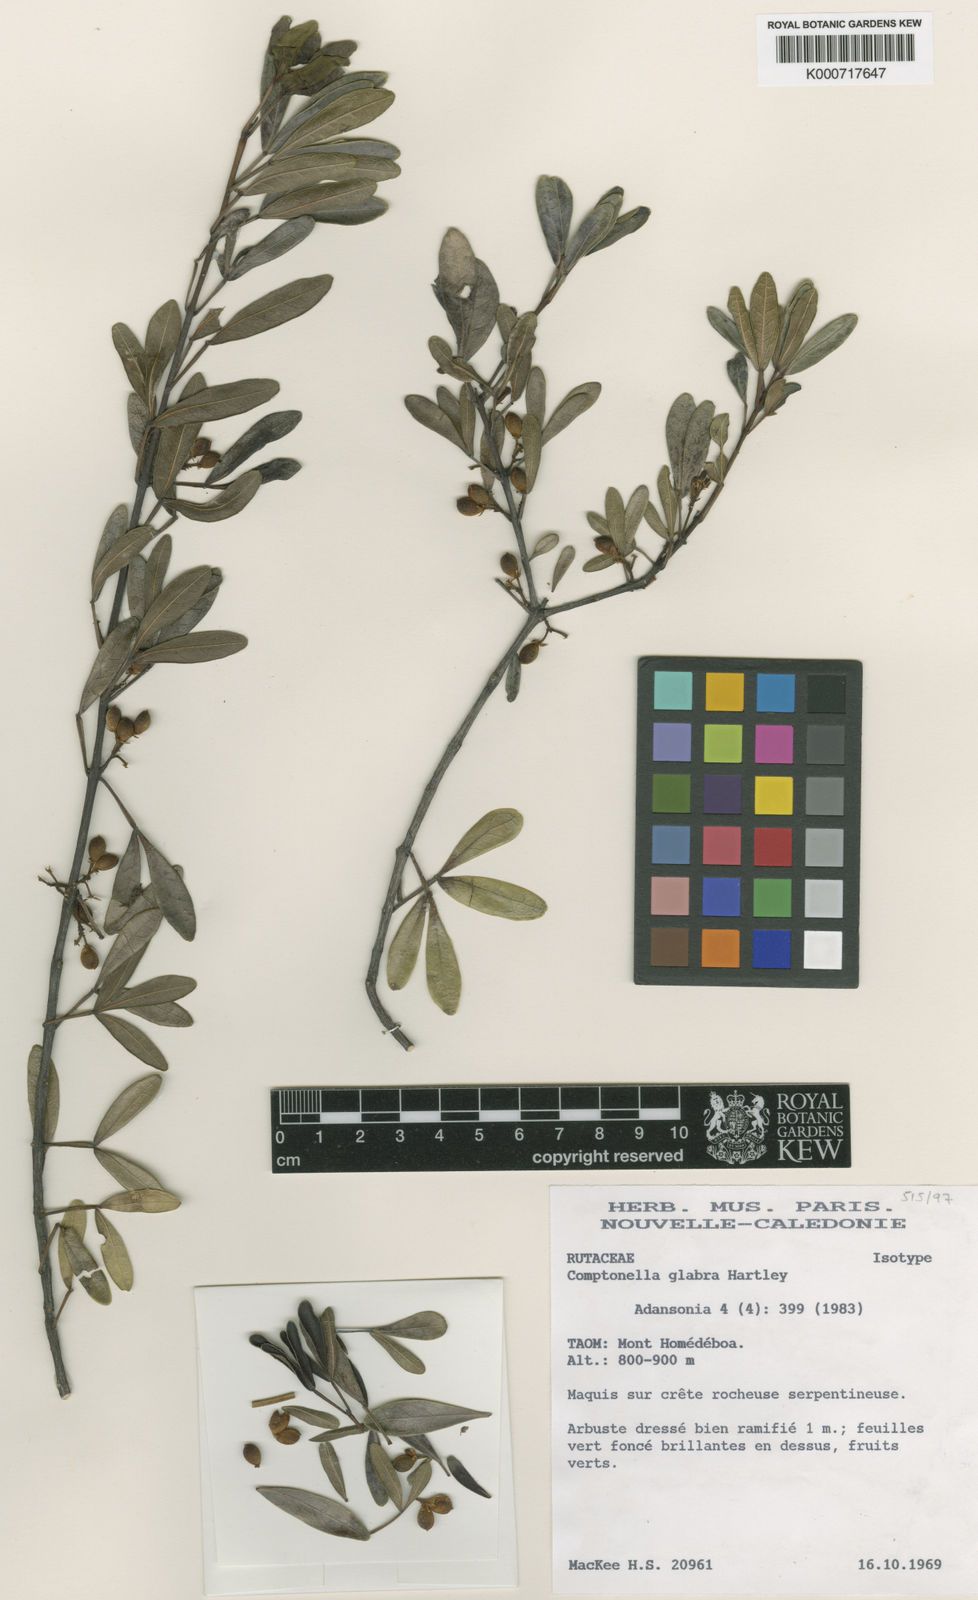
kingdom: Plantae
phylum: Tracheophyta
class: Magnoliopsida
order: Sapindales
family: Rutaceae
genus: Comptonella
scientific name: Comptonella glabra
